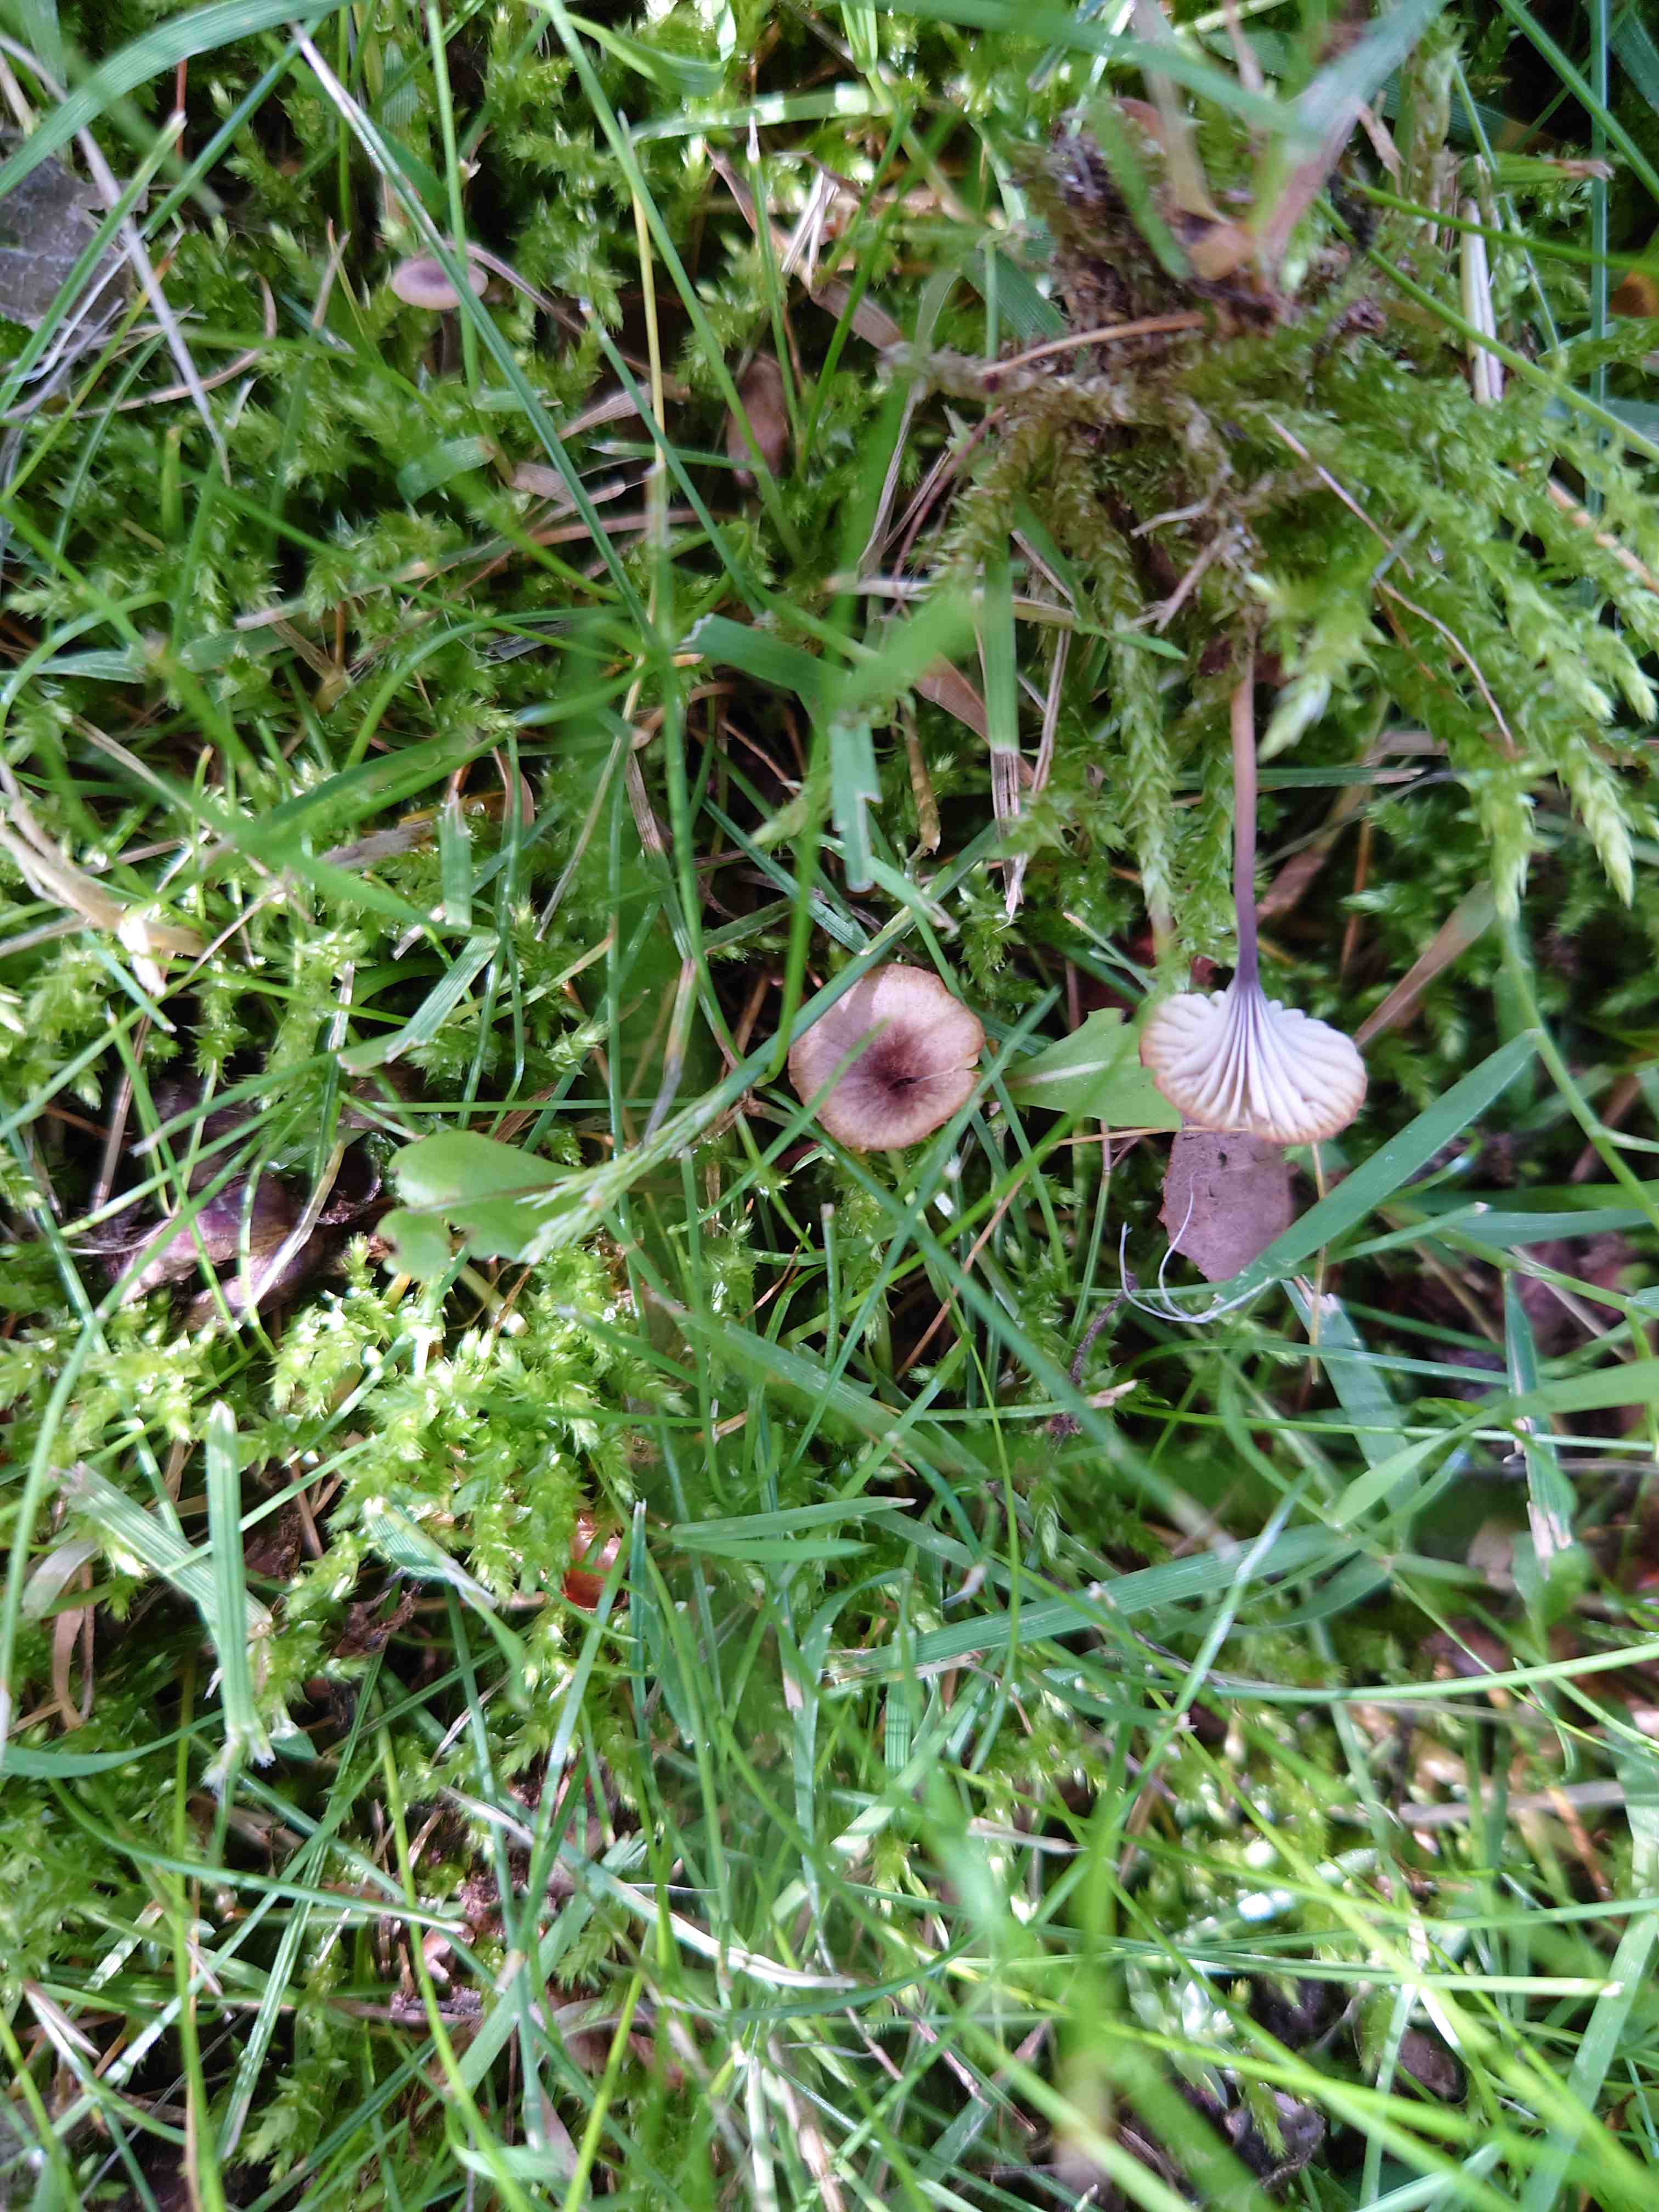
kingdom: Fungi
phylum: Basidiomycota
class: Agaricomycetes
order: Hymenochaetales
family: Rickenellaceae
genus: Rickenella
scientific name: Rickenella swartzii
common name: finstokket mosnavlehat
